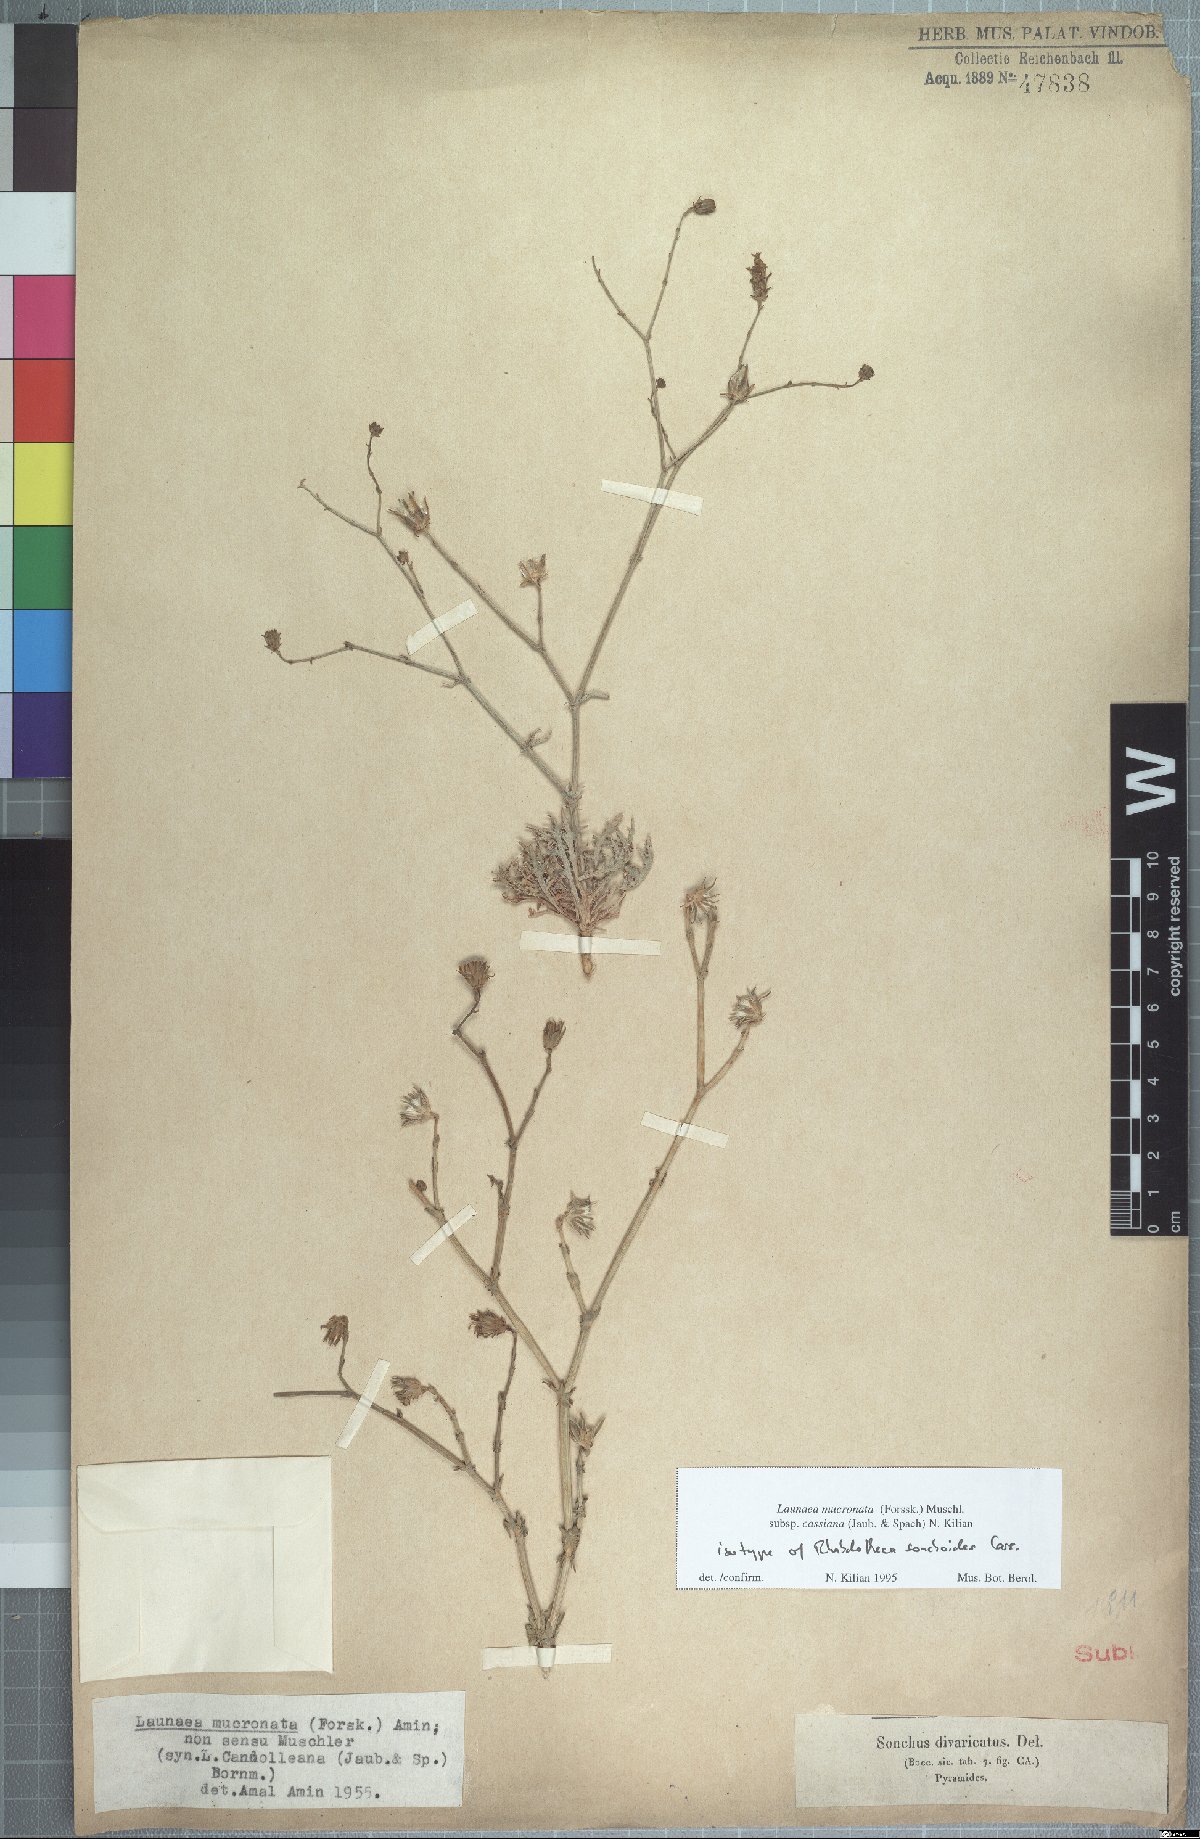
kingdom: Plantae
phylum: Tracheophyta
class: Magnoliopsida
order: Asterales
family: Asteraceae
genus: Launaea
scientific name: Launaea mucronata
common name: Mucronate launea
